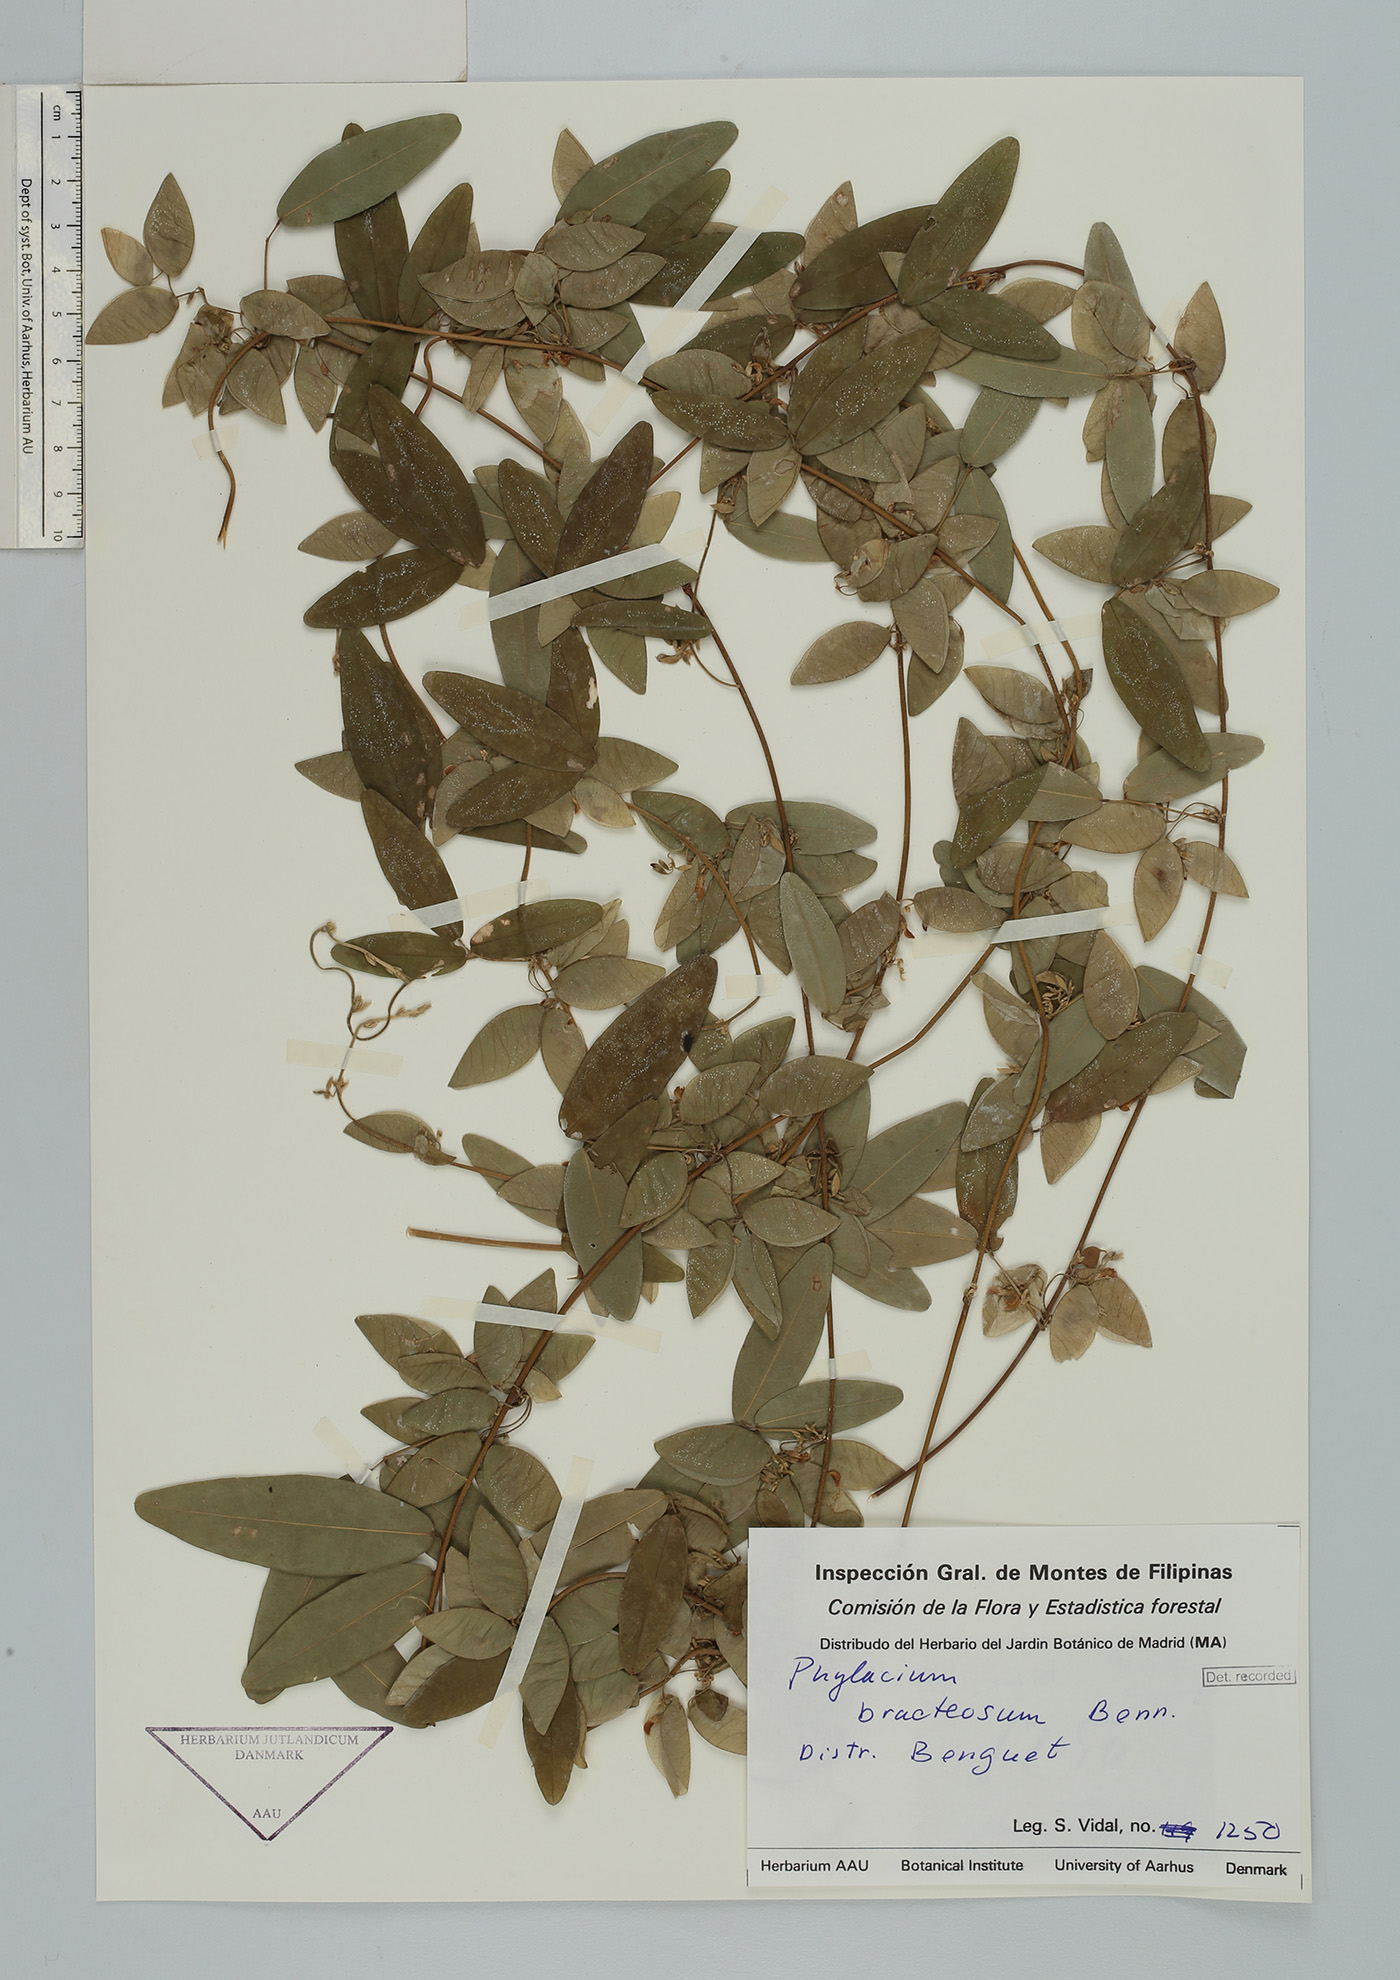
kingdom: Plantae
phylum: Tracheophyta
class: Magnoliopsida
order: Fabales
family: Fabaceae
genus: Phylacium
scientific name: Phylacium bracteosum
